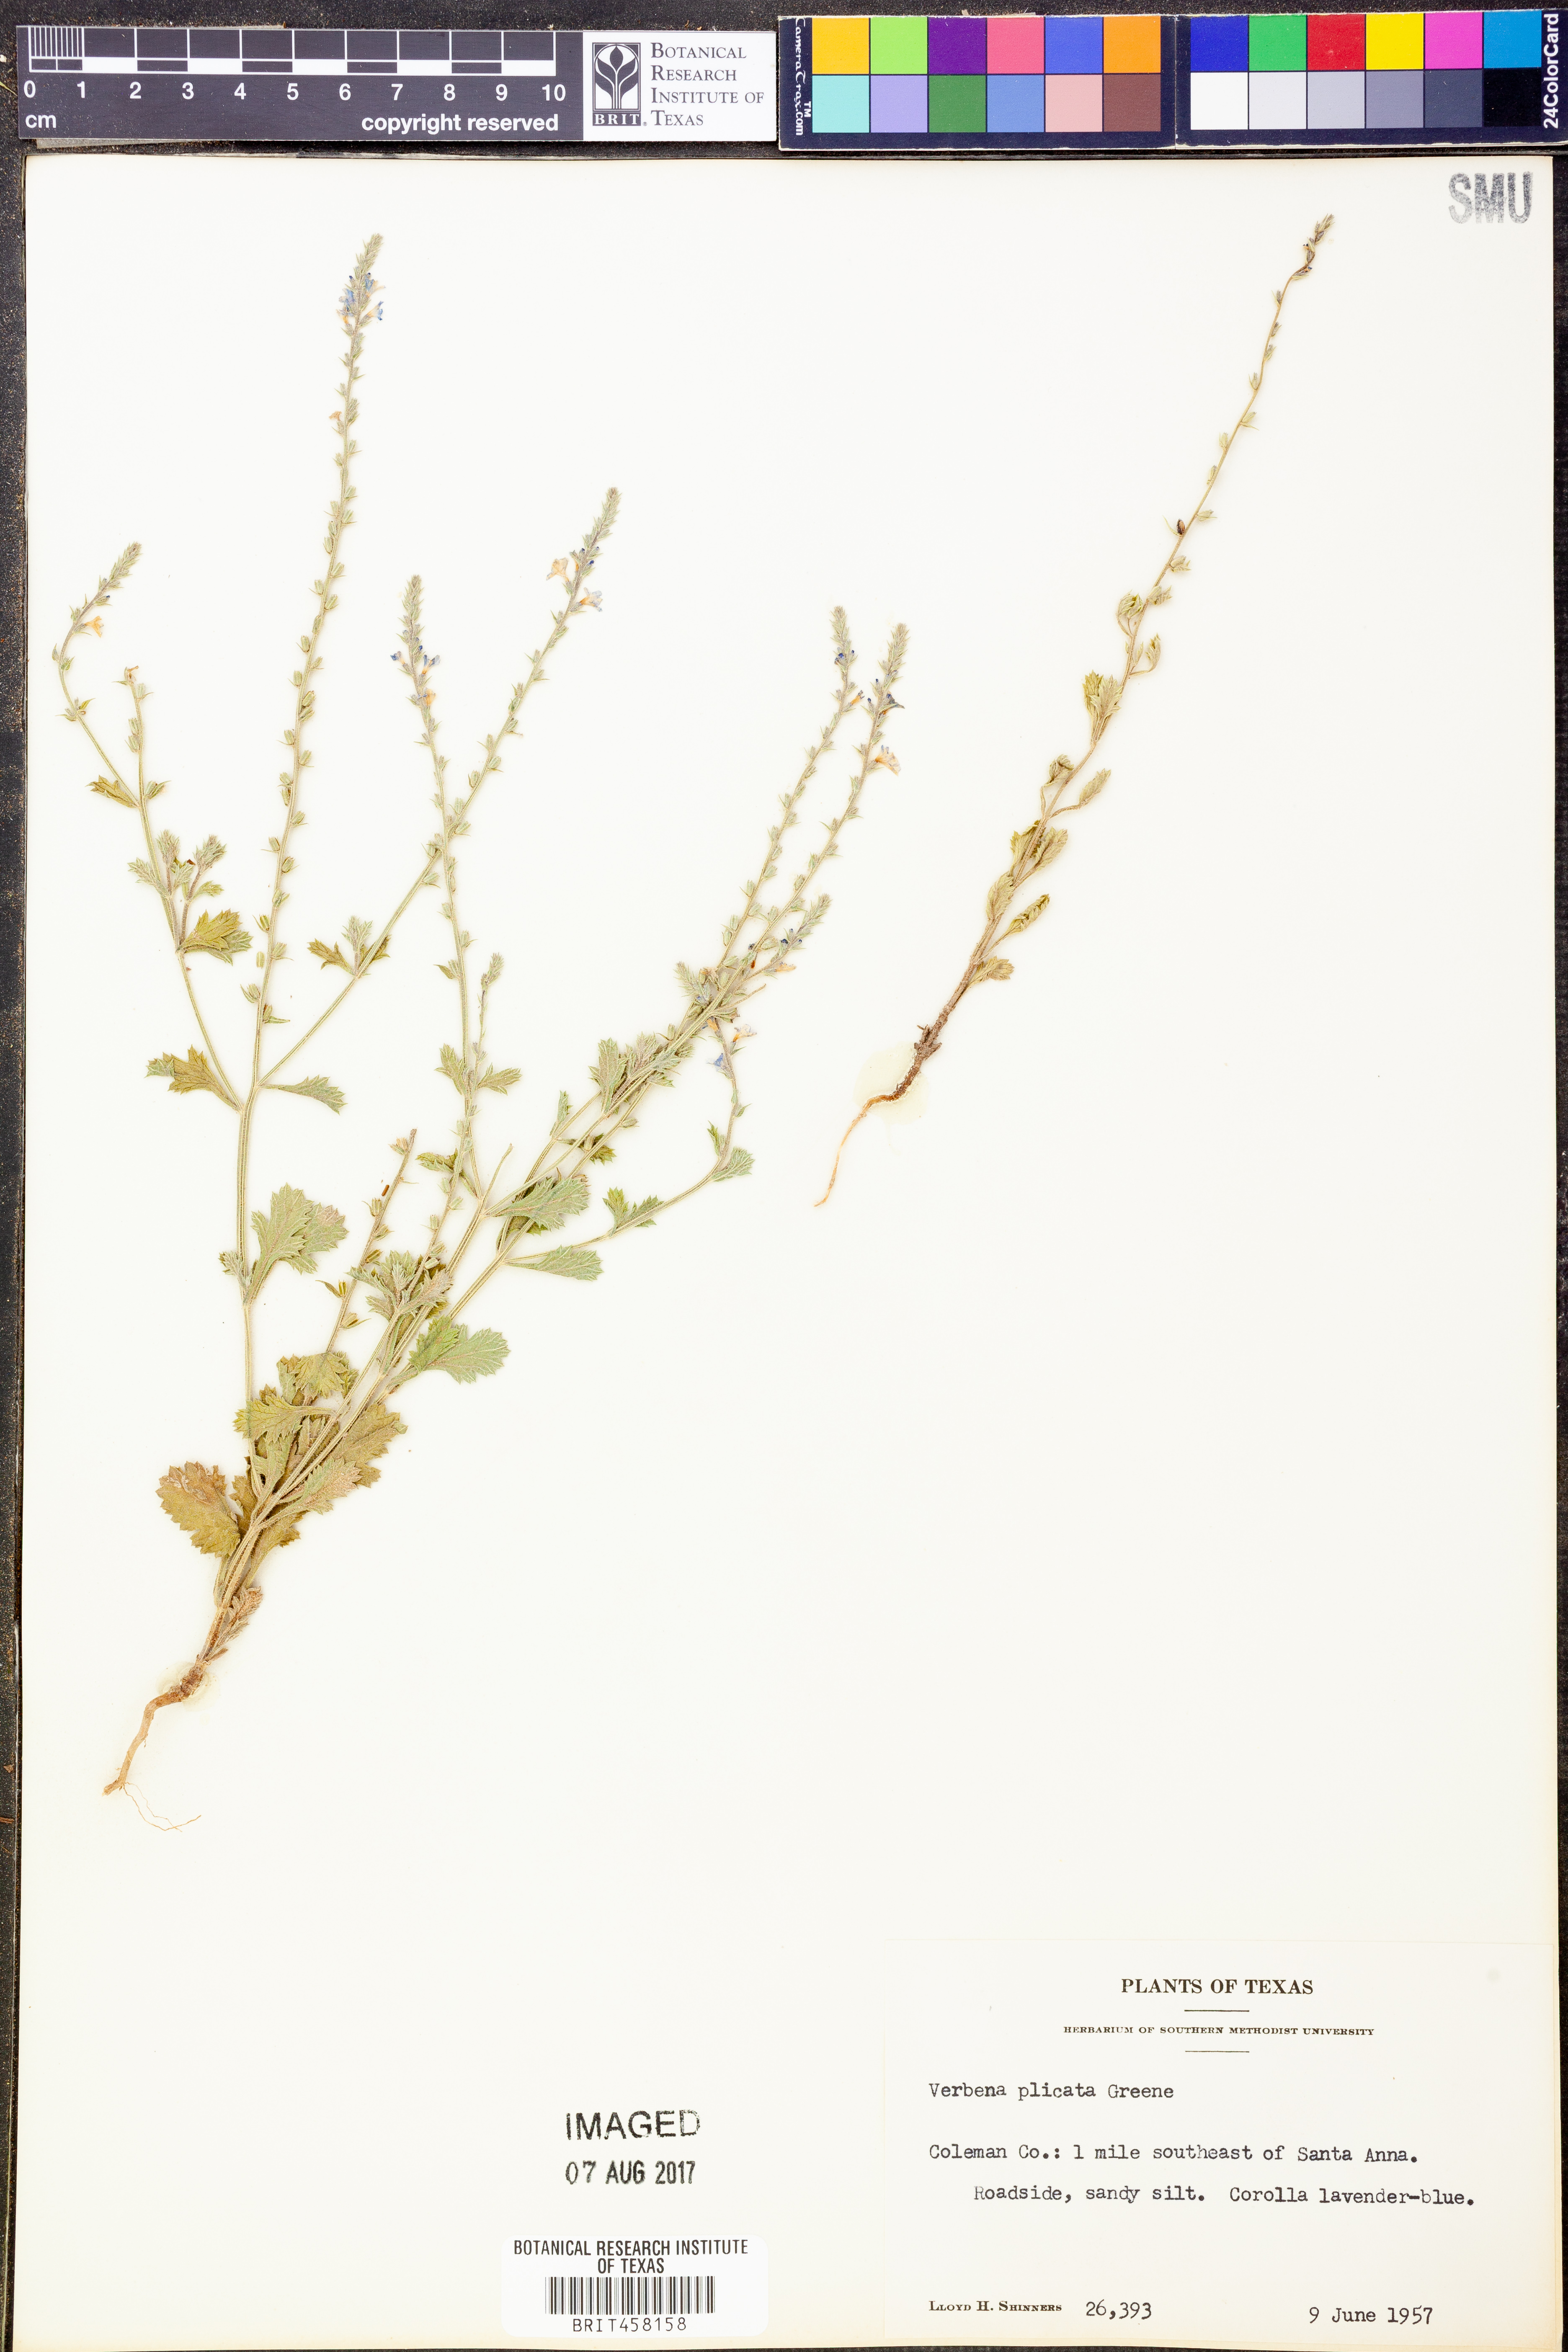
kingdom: Plantae
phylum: Tracheophyta
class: Magnoliopsida
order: Lamiales
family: Verbenaceae
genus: Verbena
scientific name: Verbena plicata
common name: Fan-leaf vervain
